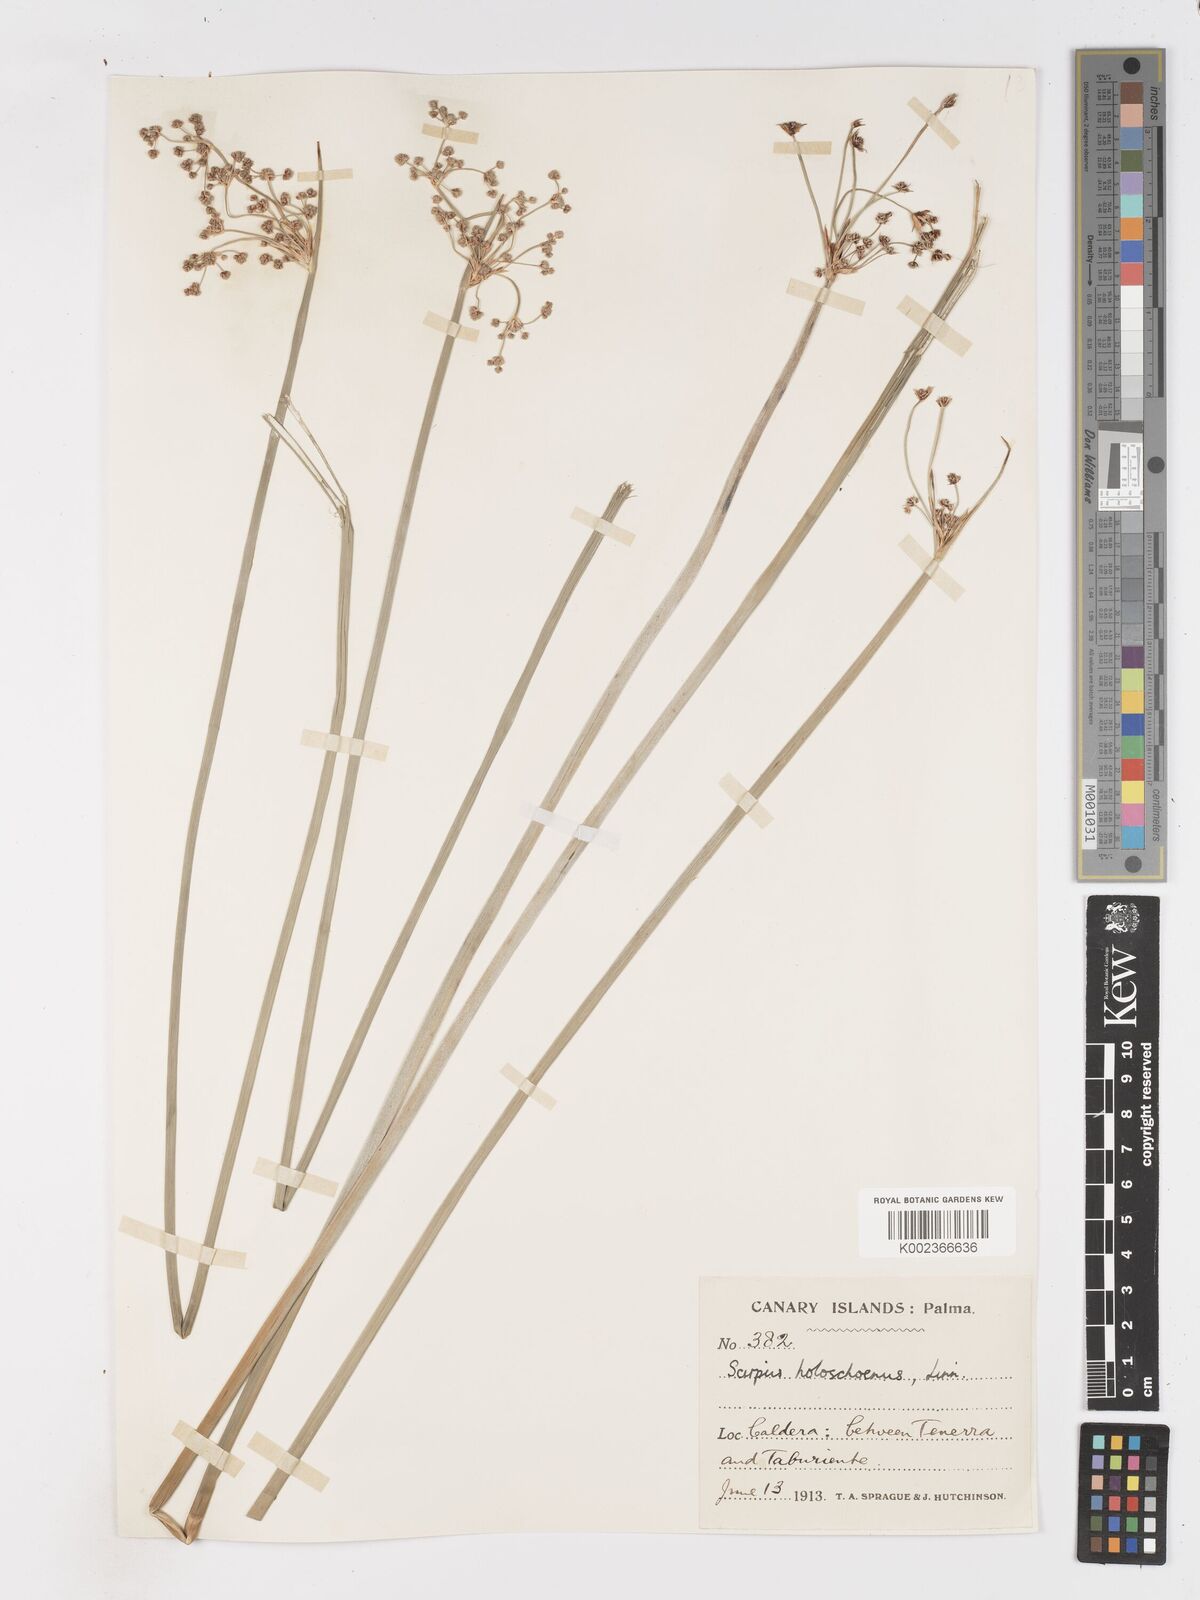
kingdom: Plantae
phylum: Tracheophyta
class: Liliopsida
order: Poales
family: Cyperaceae
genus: Scirpoides
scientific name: Scirpoides holoschoenus
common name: Round-headed club-rush
